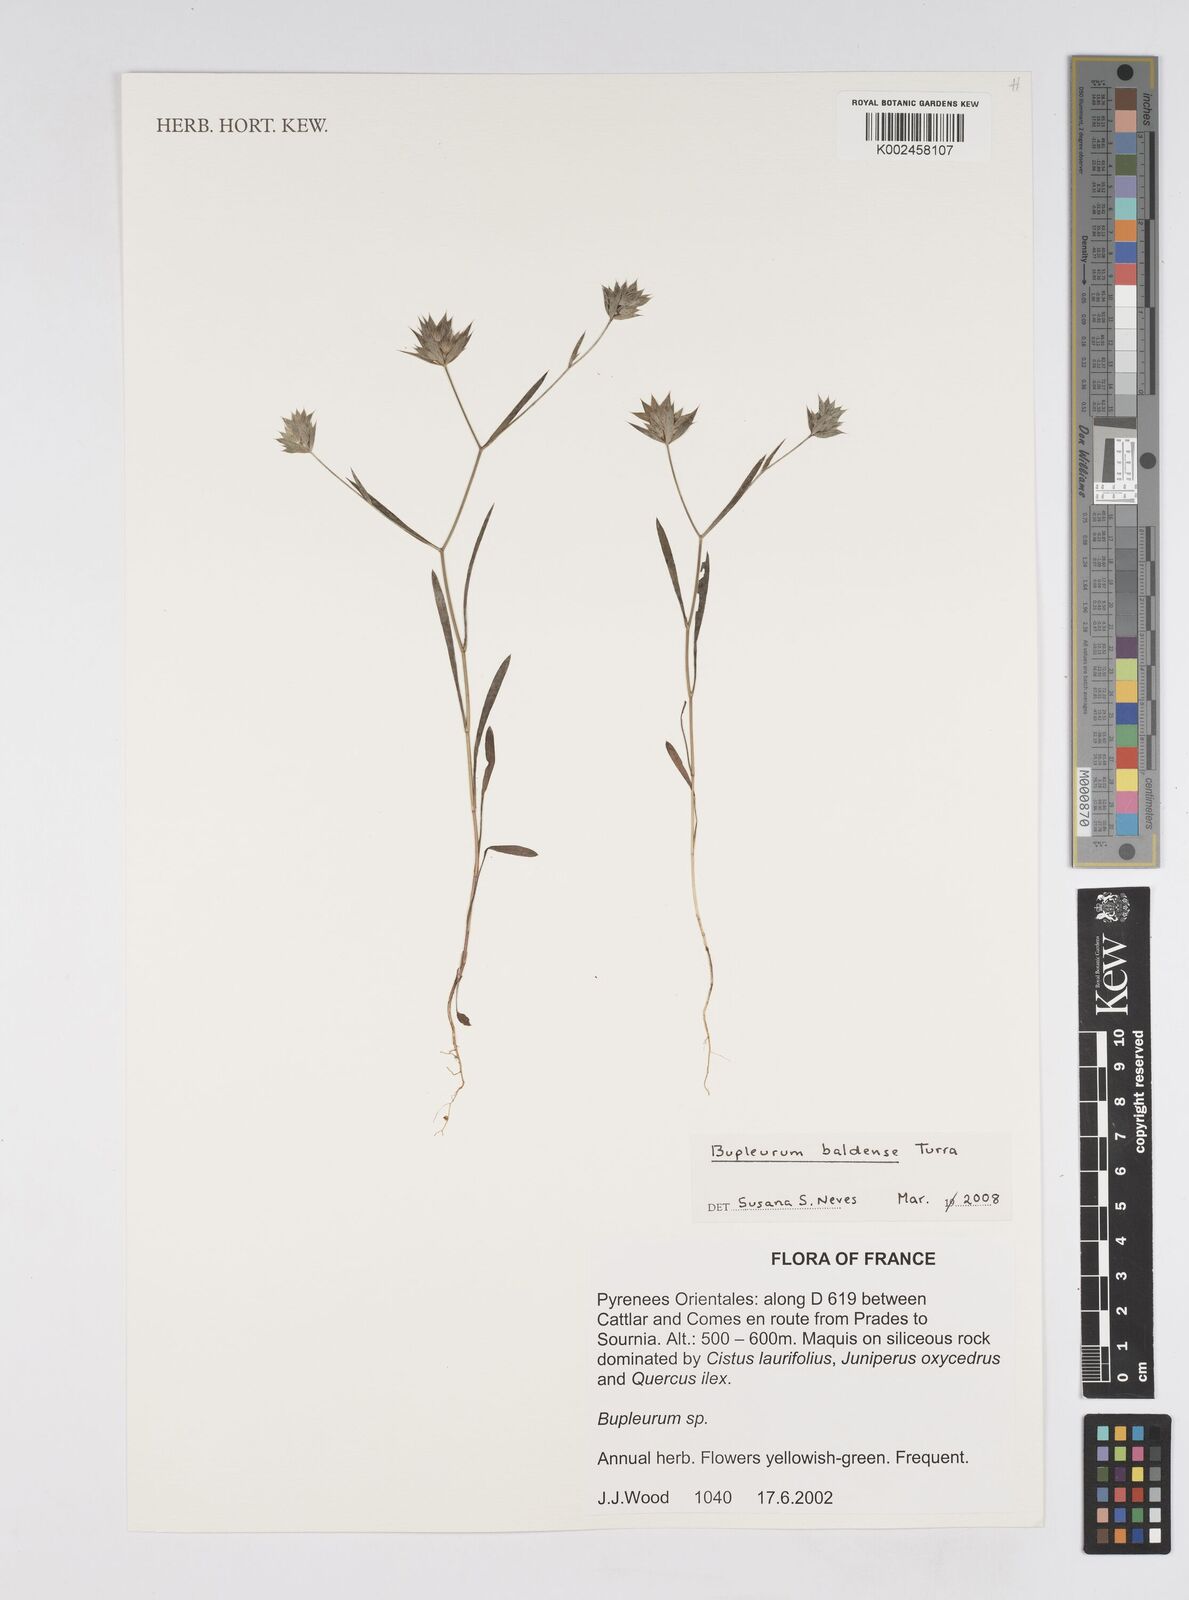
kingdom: Plantae
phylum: Tracheophyta
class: Magnoliopsida
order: Apiales
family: Apiaceae
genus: Bupleurum
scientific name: Bupleurum baldense
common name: Small hare's-ear
